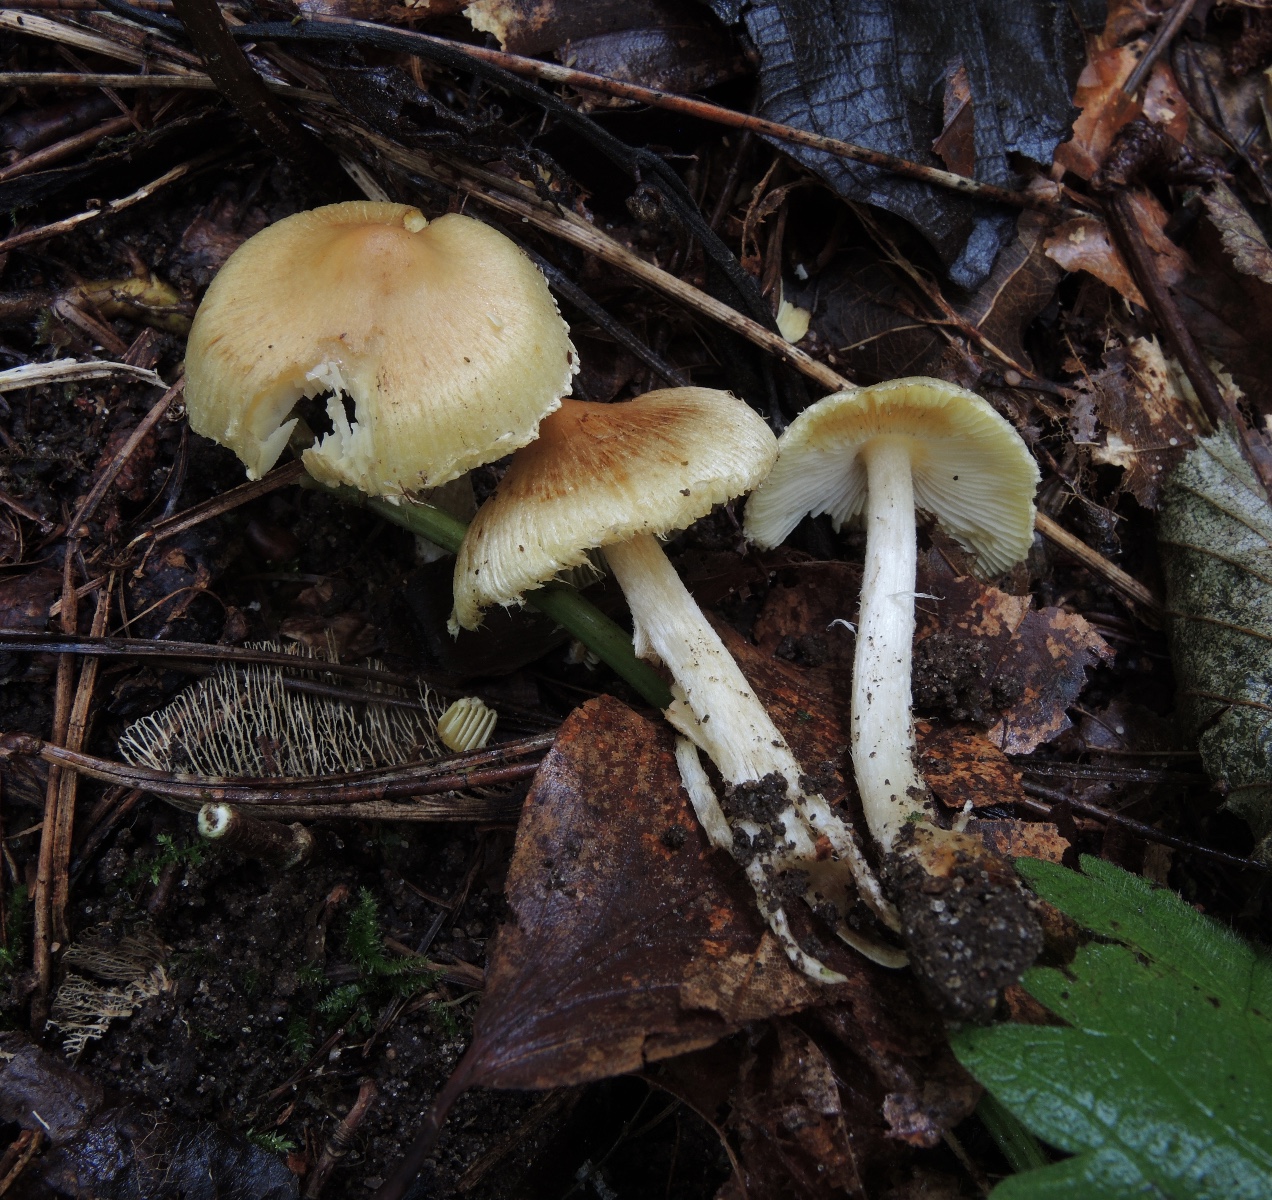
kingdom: Fungi
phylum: Basidiomycota
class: Agaricomycetes
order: Agaricales
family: Inocybaceae
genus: Pseudosperma
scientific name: Pseudosperma rimosum
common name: gulbladet trævlhat
